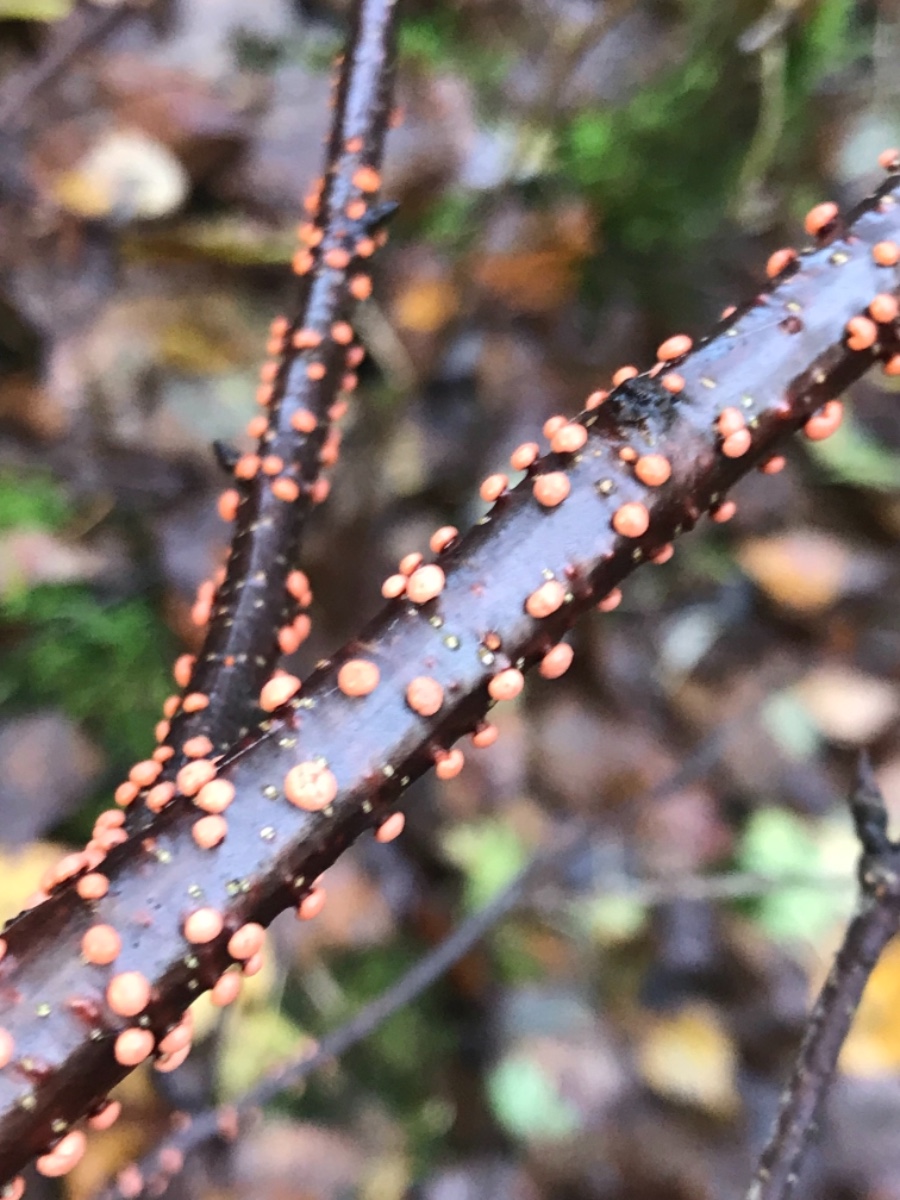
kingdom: Fungi
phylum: Ascomycota
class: Sordariomycetes
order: Hypocreales
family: Nectriaceae
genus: Nectria
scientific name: Nectria cinnabarina
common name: almindelig cinnobersvamp
